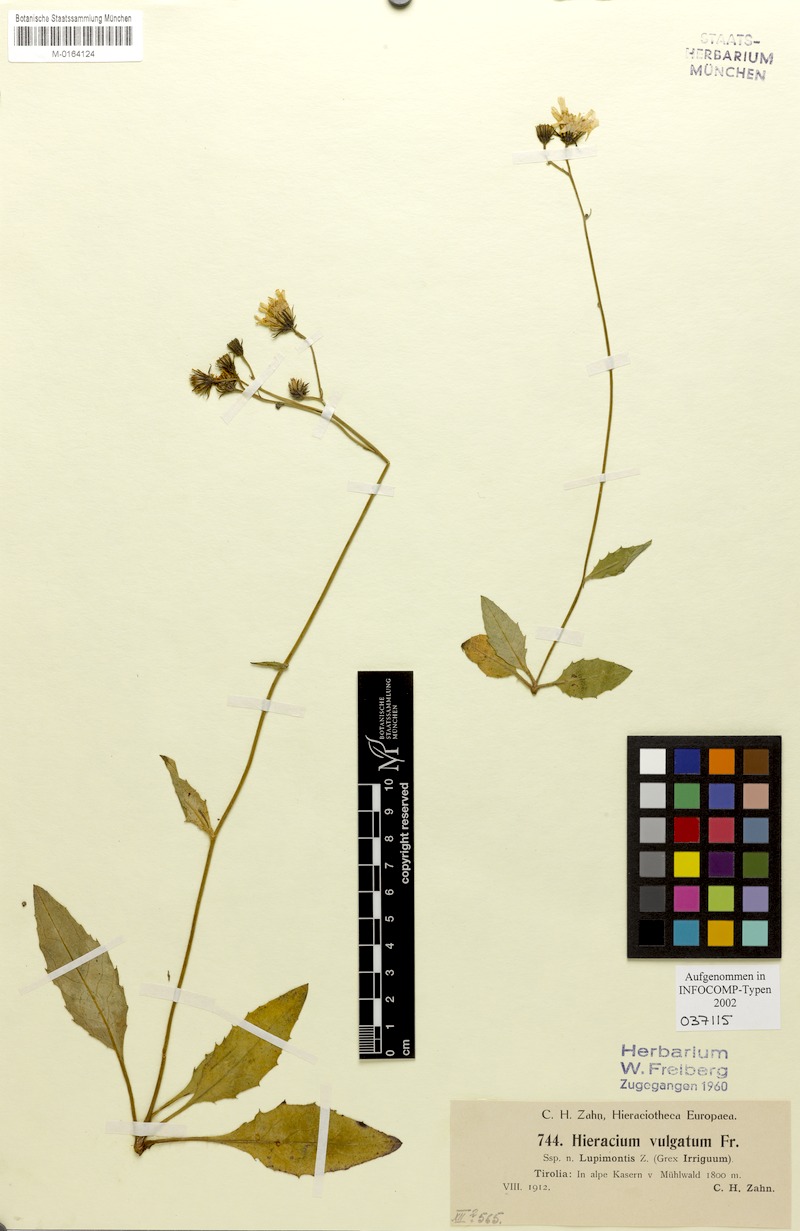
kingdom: Plantae
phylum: Tracheophyta
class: Magnoliopsida
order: Asterales
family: Asteraceae
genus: Hieracium
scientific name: Hieracium lachenalii
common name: Common hawkweed
